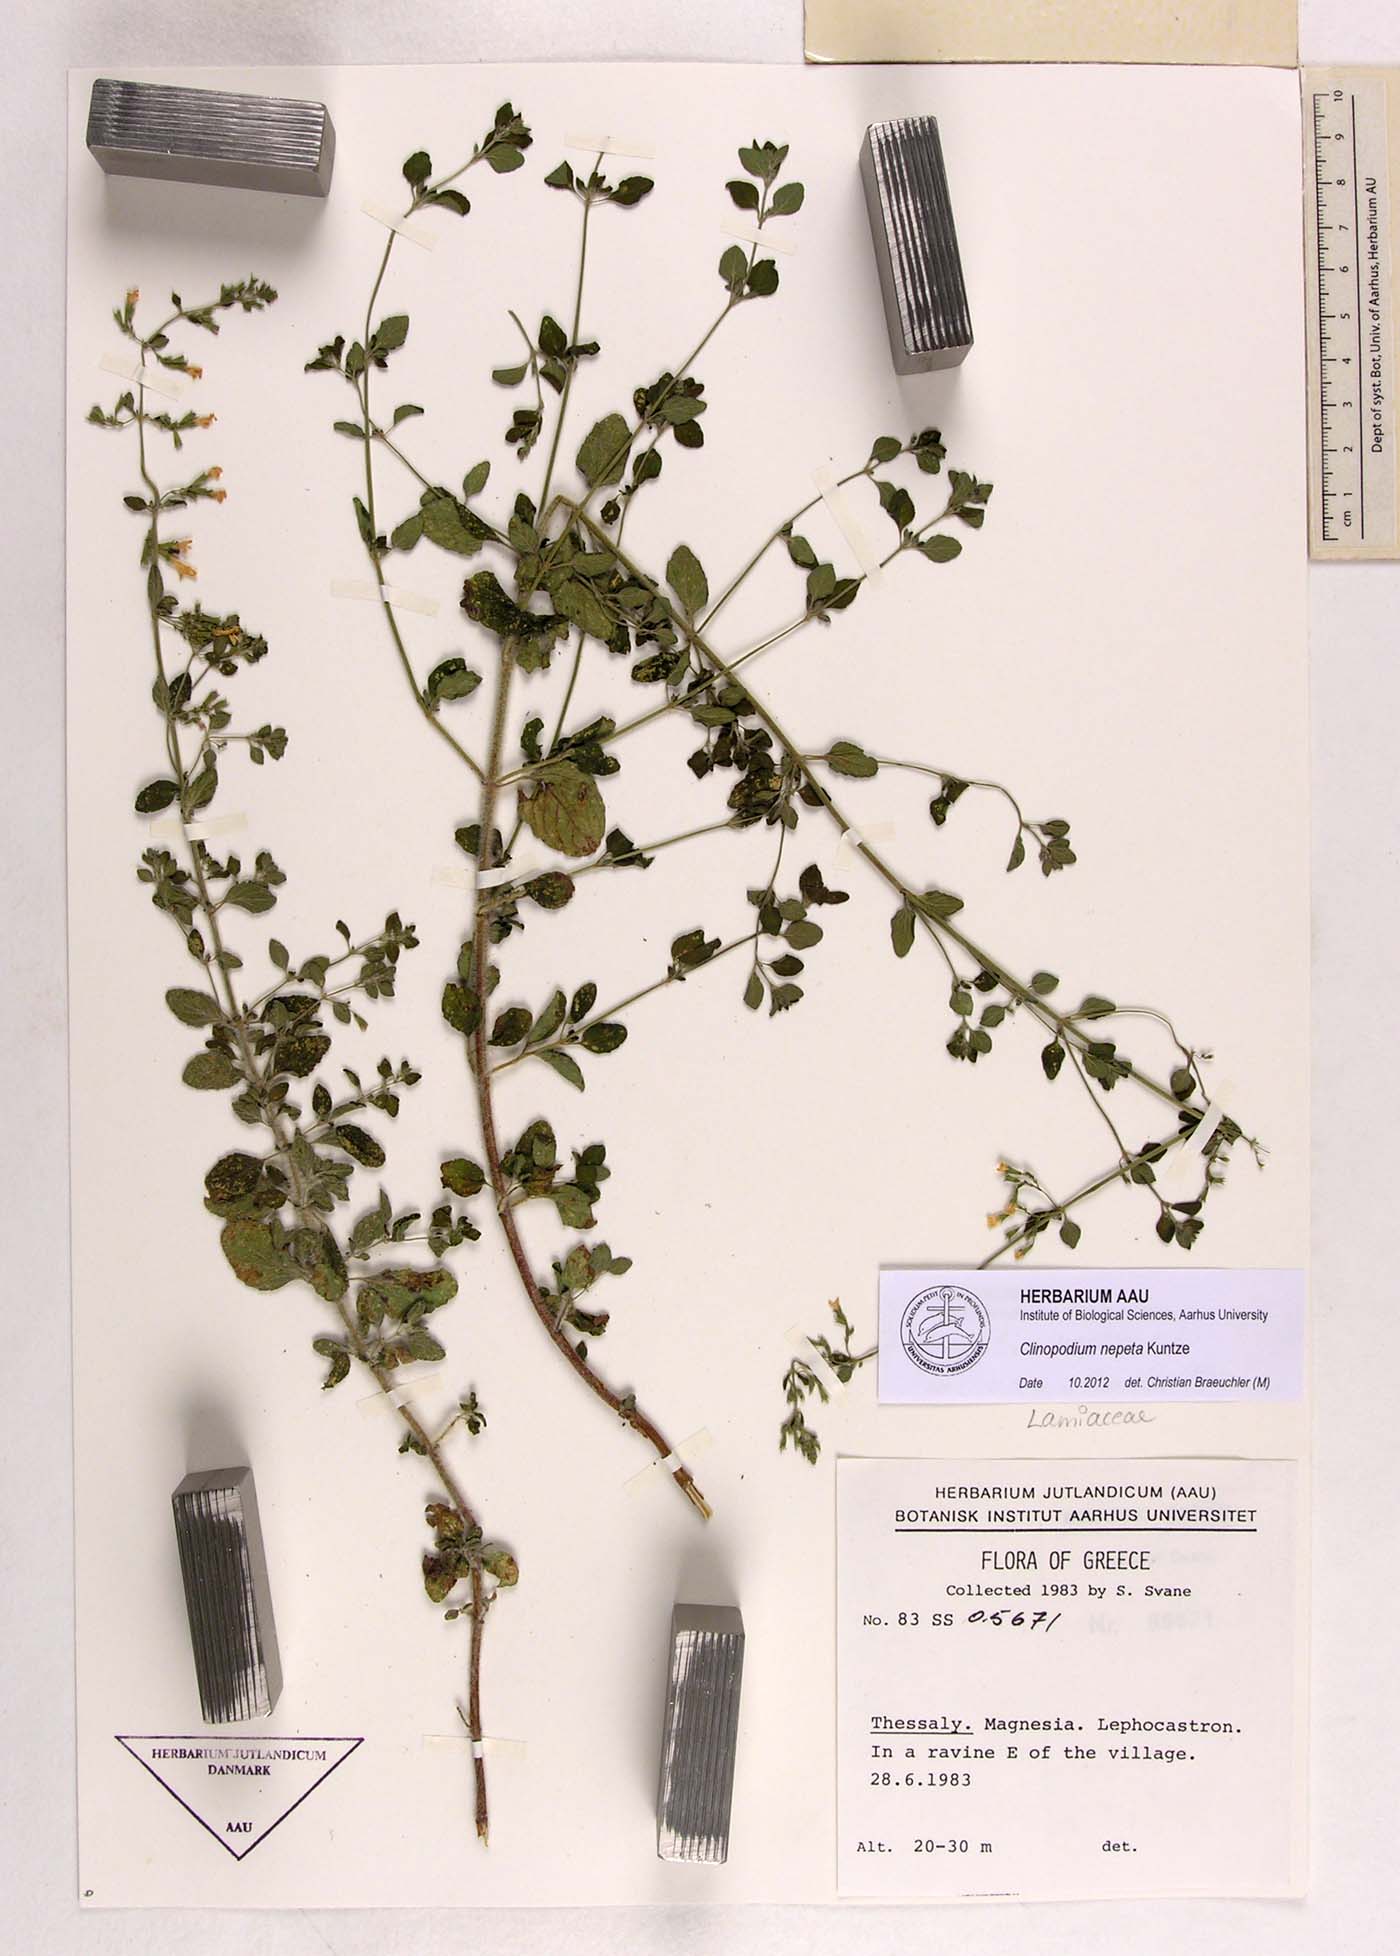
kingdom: Plantae
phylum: Tracheophyta
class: Magnoliopsida
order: Lamiales
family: Lamiaceae
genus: Clinopodium
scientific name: Clinopodium nepeta
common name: Lesser calamint
